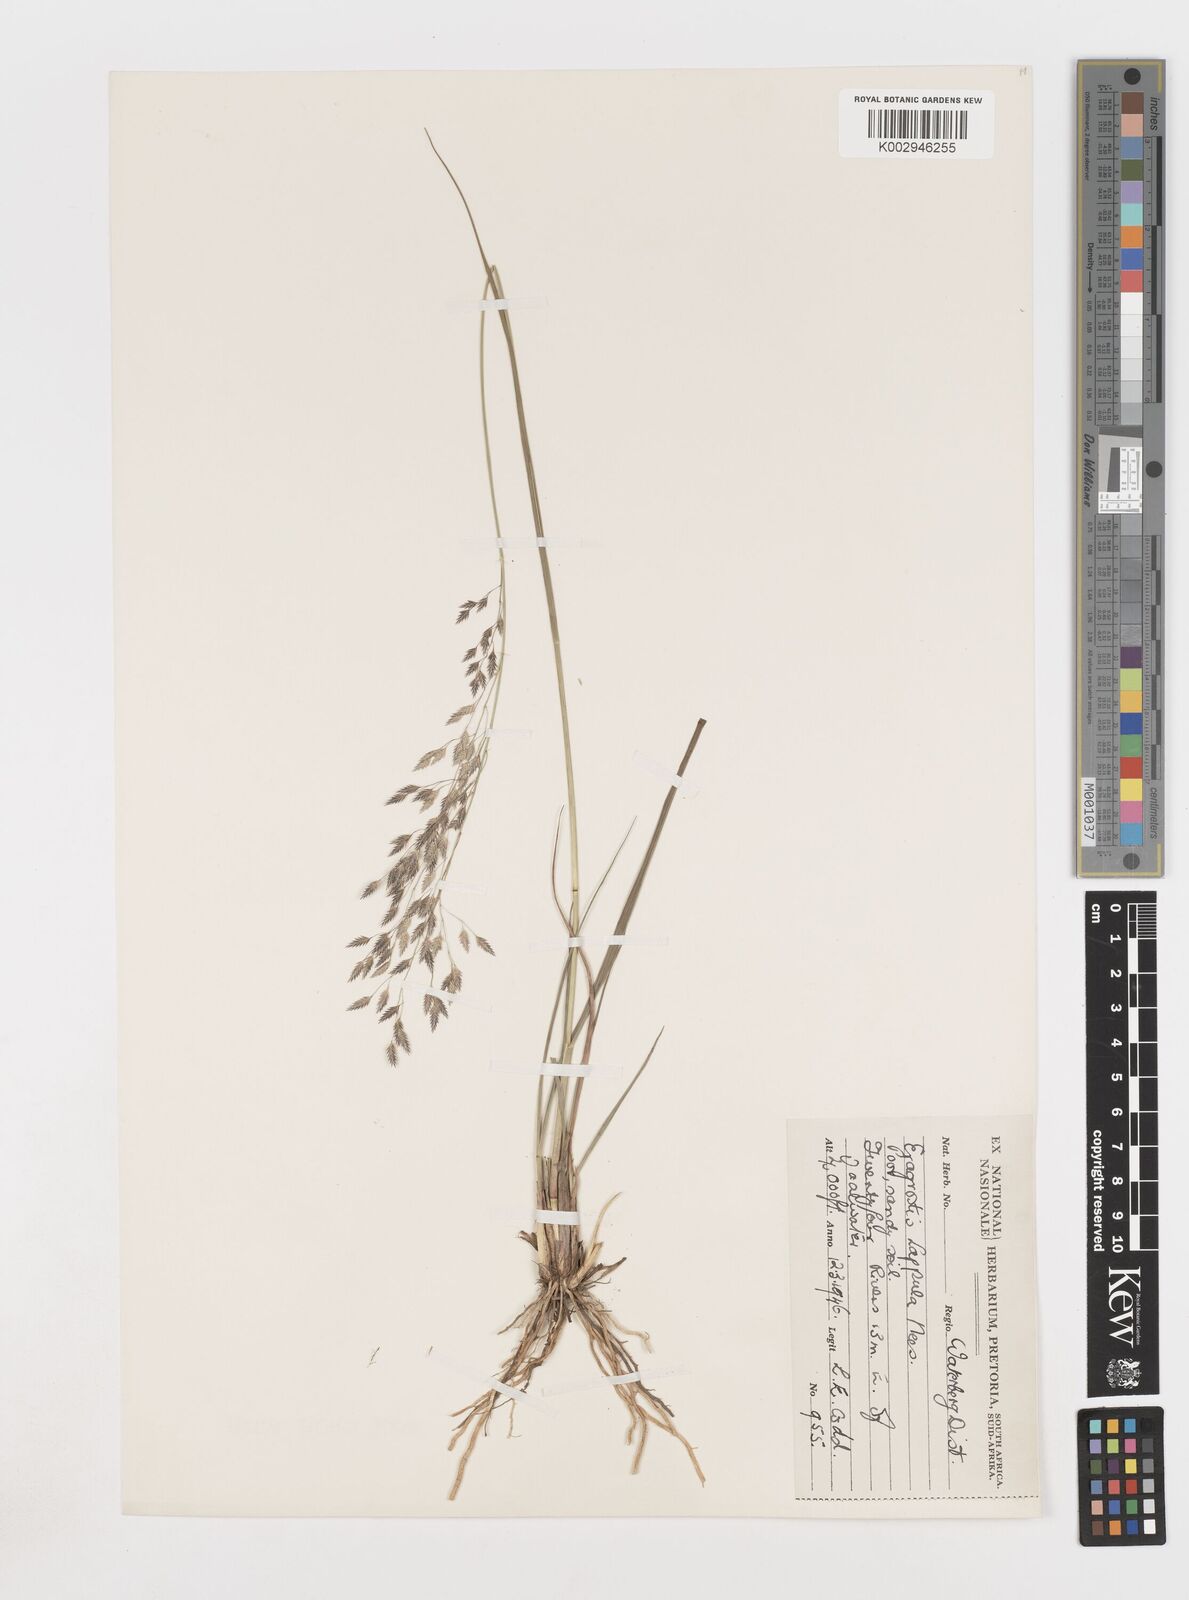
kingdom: Plantae
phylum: Tracheophyta
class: Liliopsida
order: Poales
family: Poaceae
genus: Eragrostis
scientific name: Eragrostis lappula
